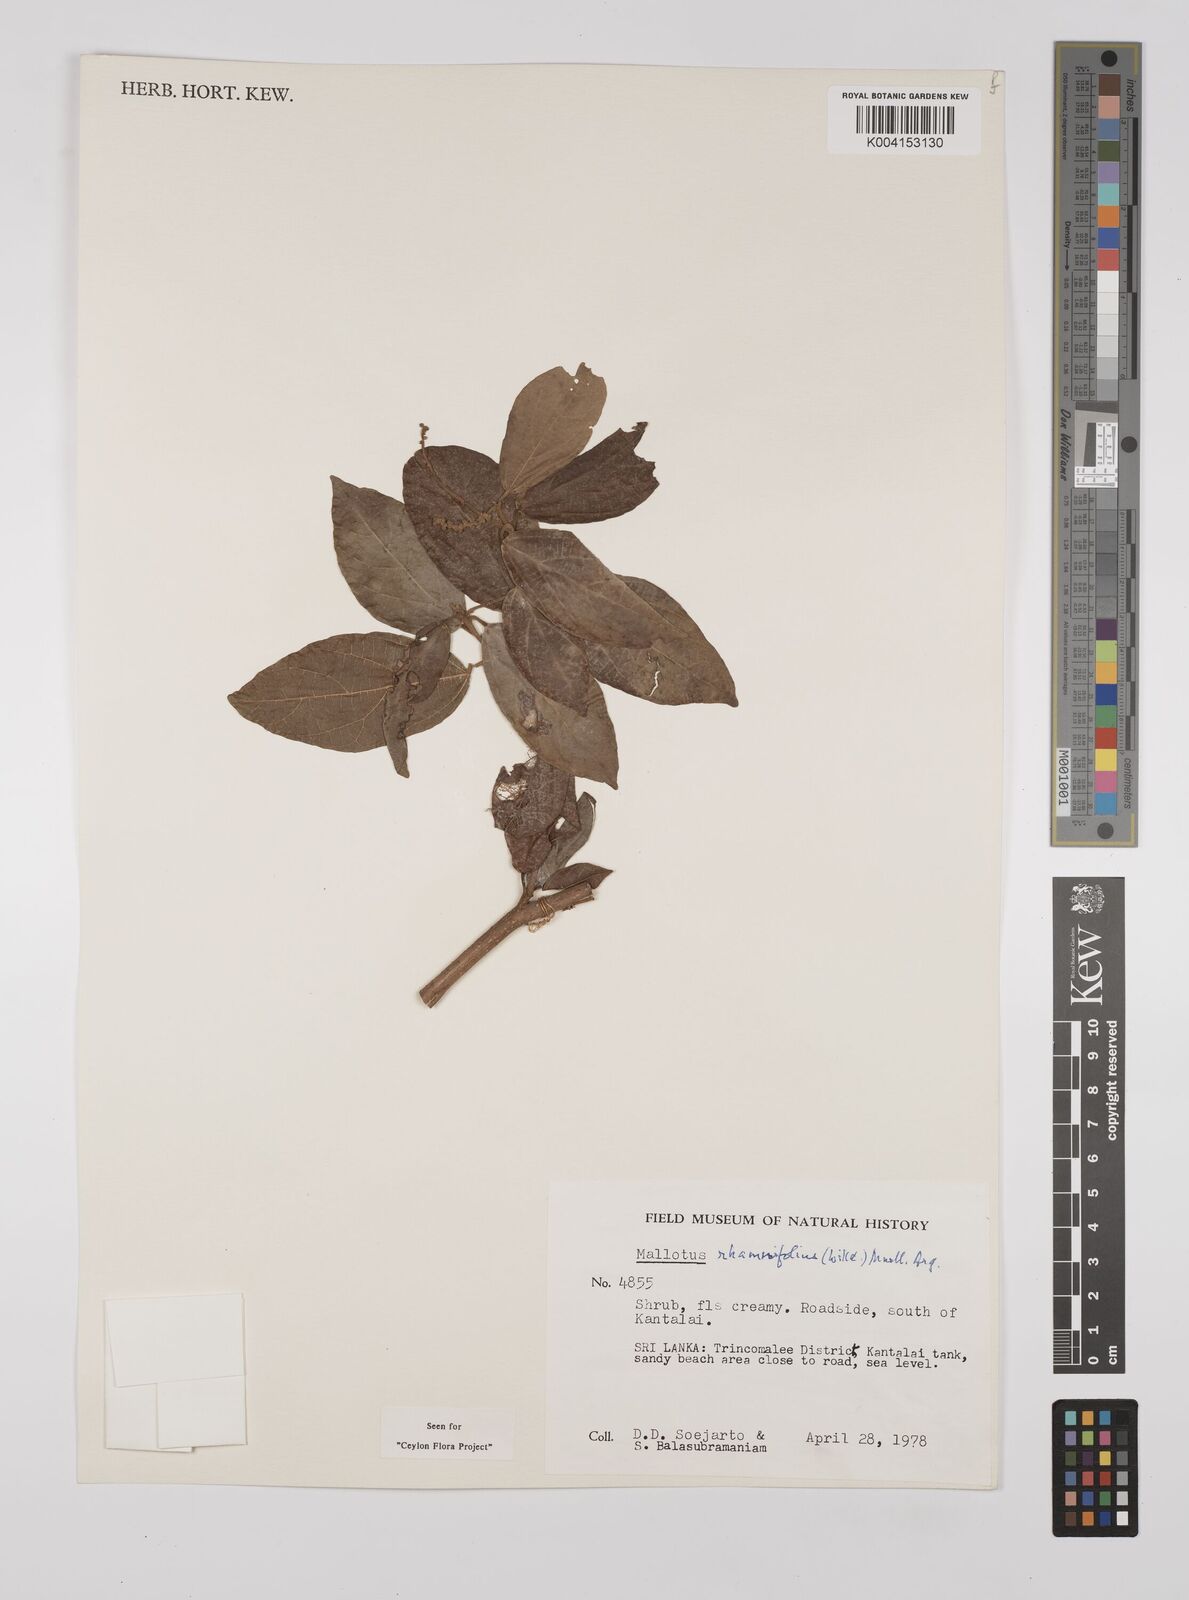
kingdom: Plantae
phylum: Tracheophyta
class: Magnoliopsida
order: Malpighiales
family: Euphorbiaceae
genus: Mallotus
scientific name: Mallotus rhamnifolius
